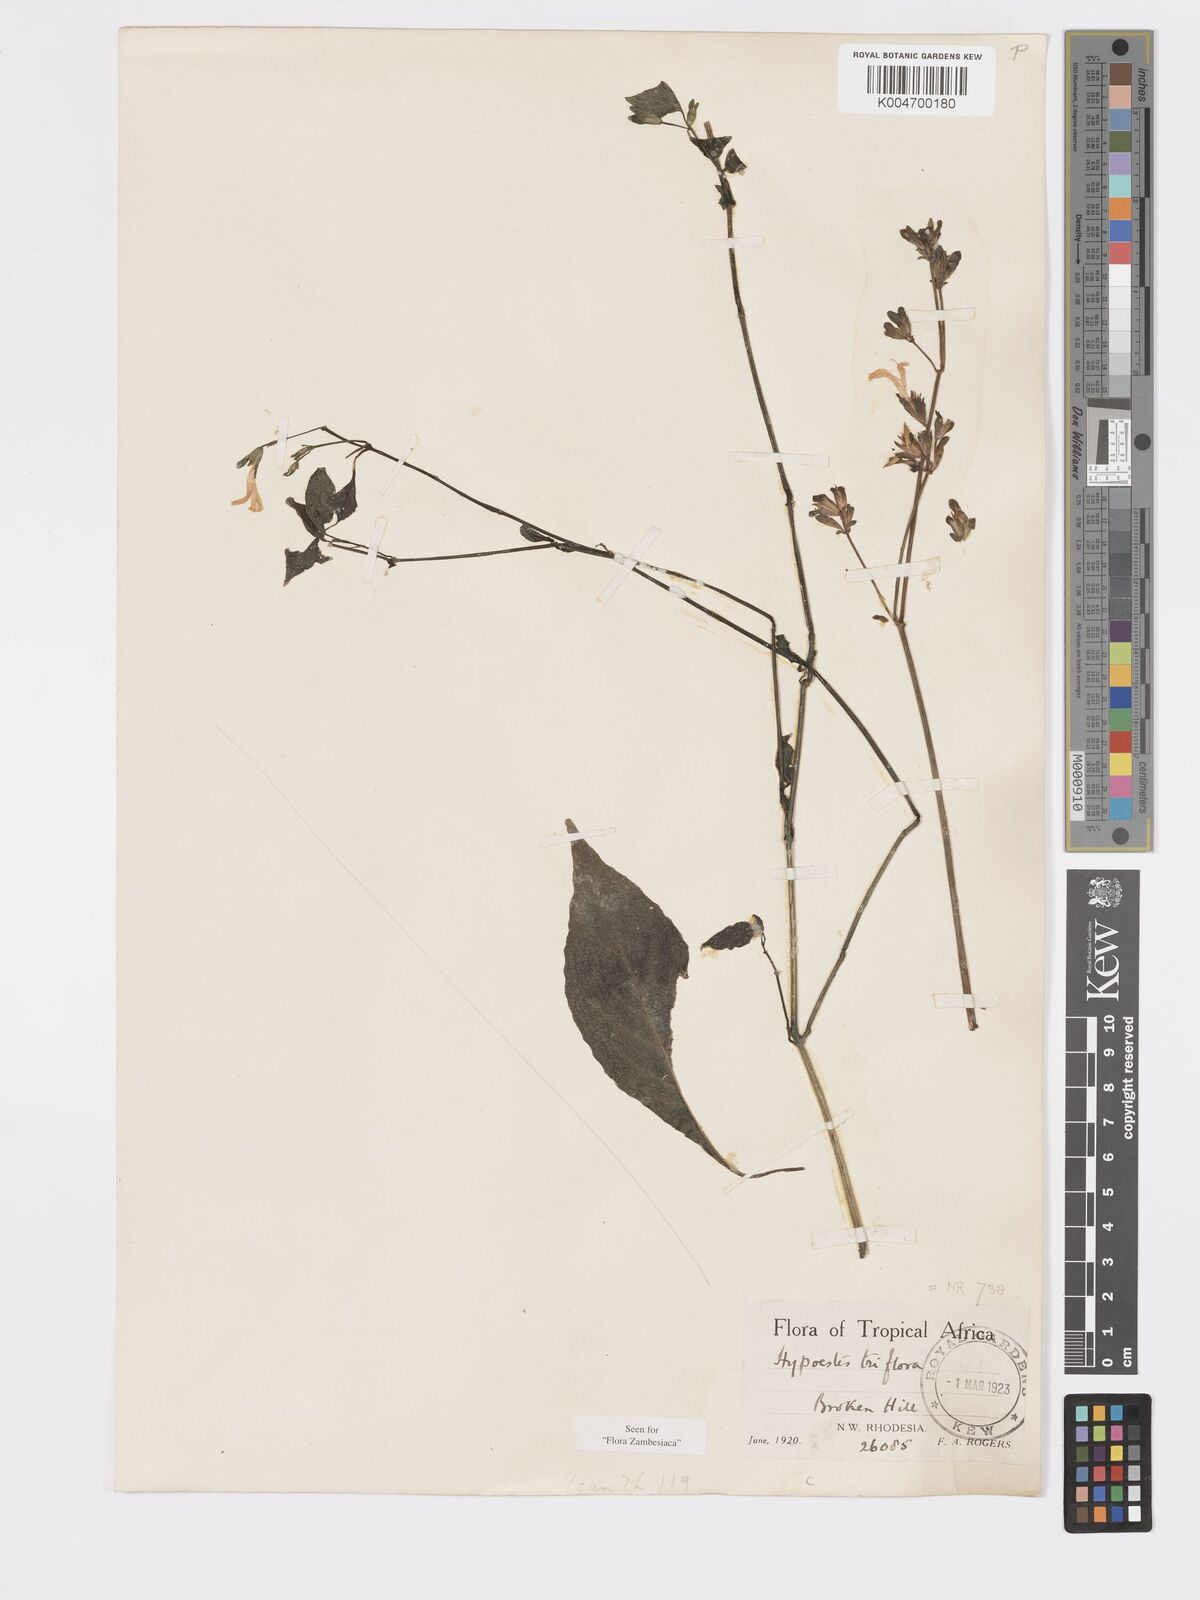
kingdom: Plantae
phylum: Tracheophyta
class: Magnoliopsida
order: Lamiales
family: Acanthaceae
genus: Hypoestes
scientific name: Hypoestes triflora
